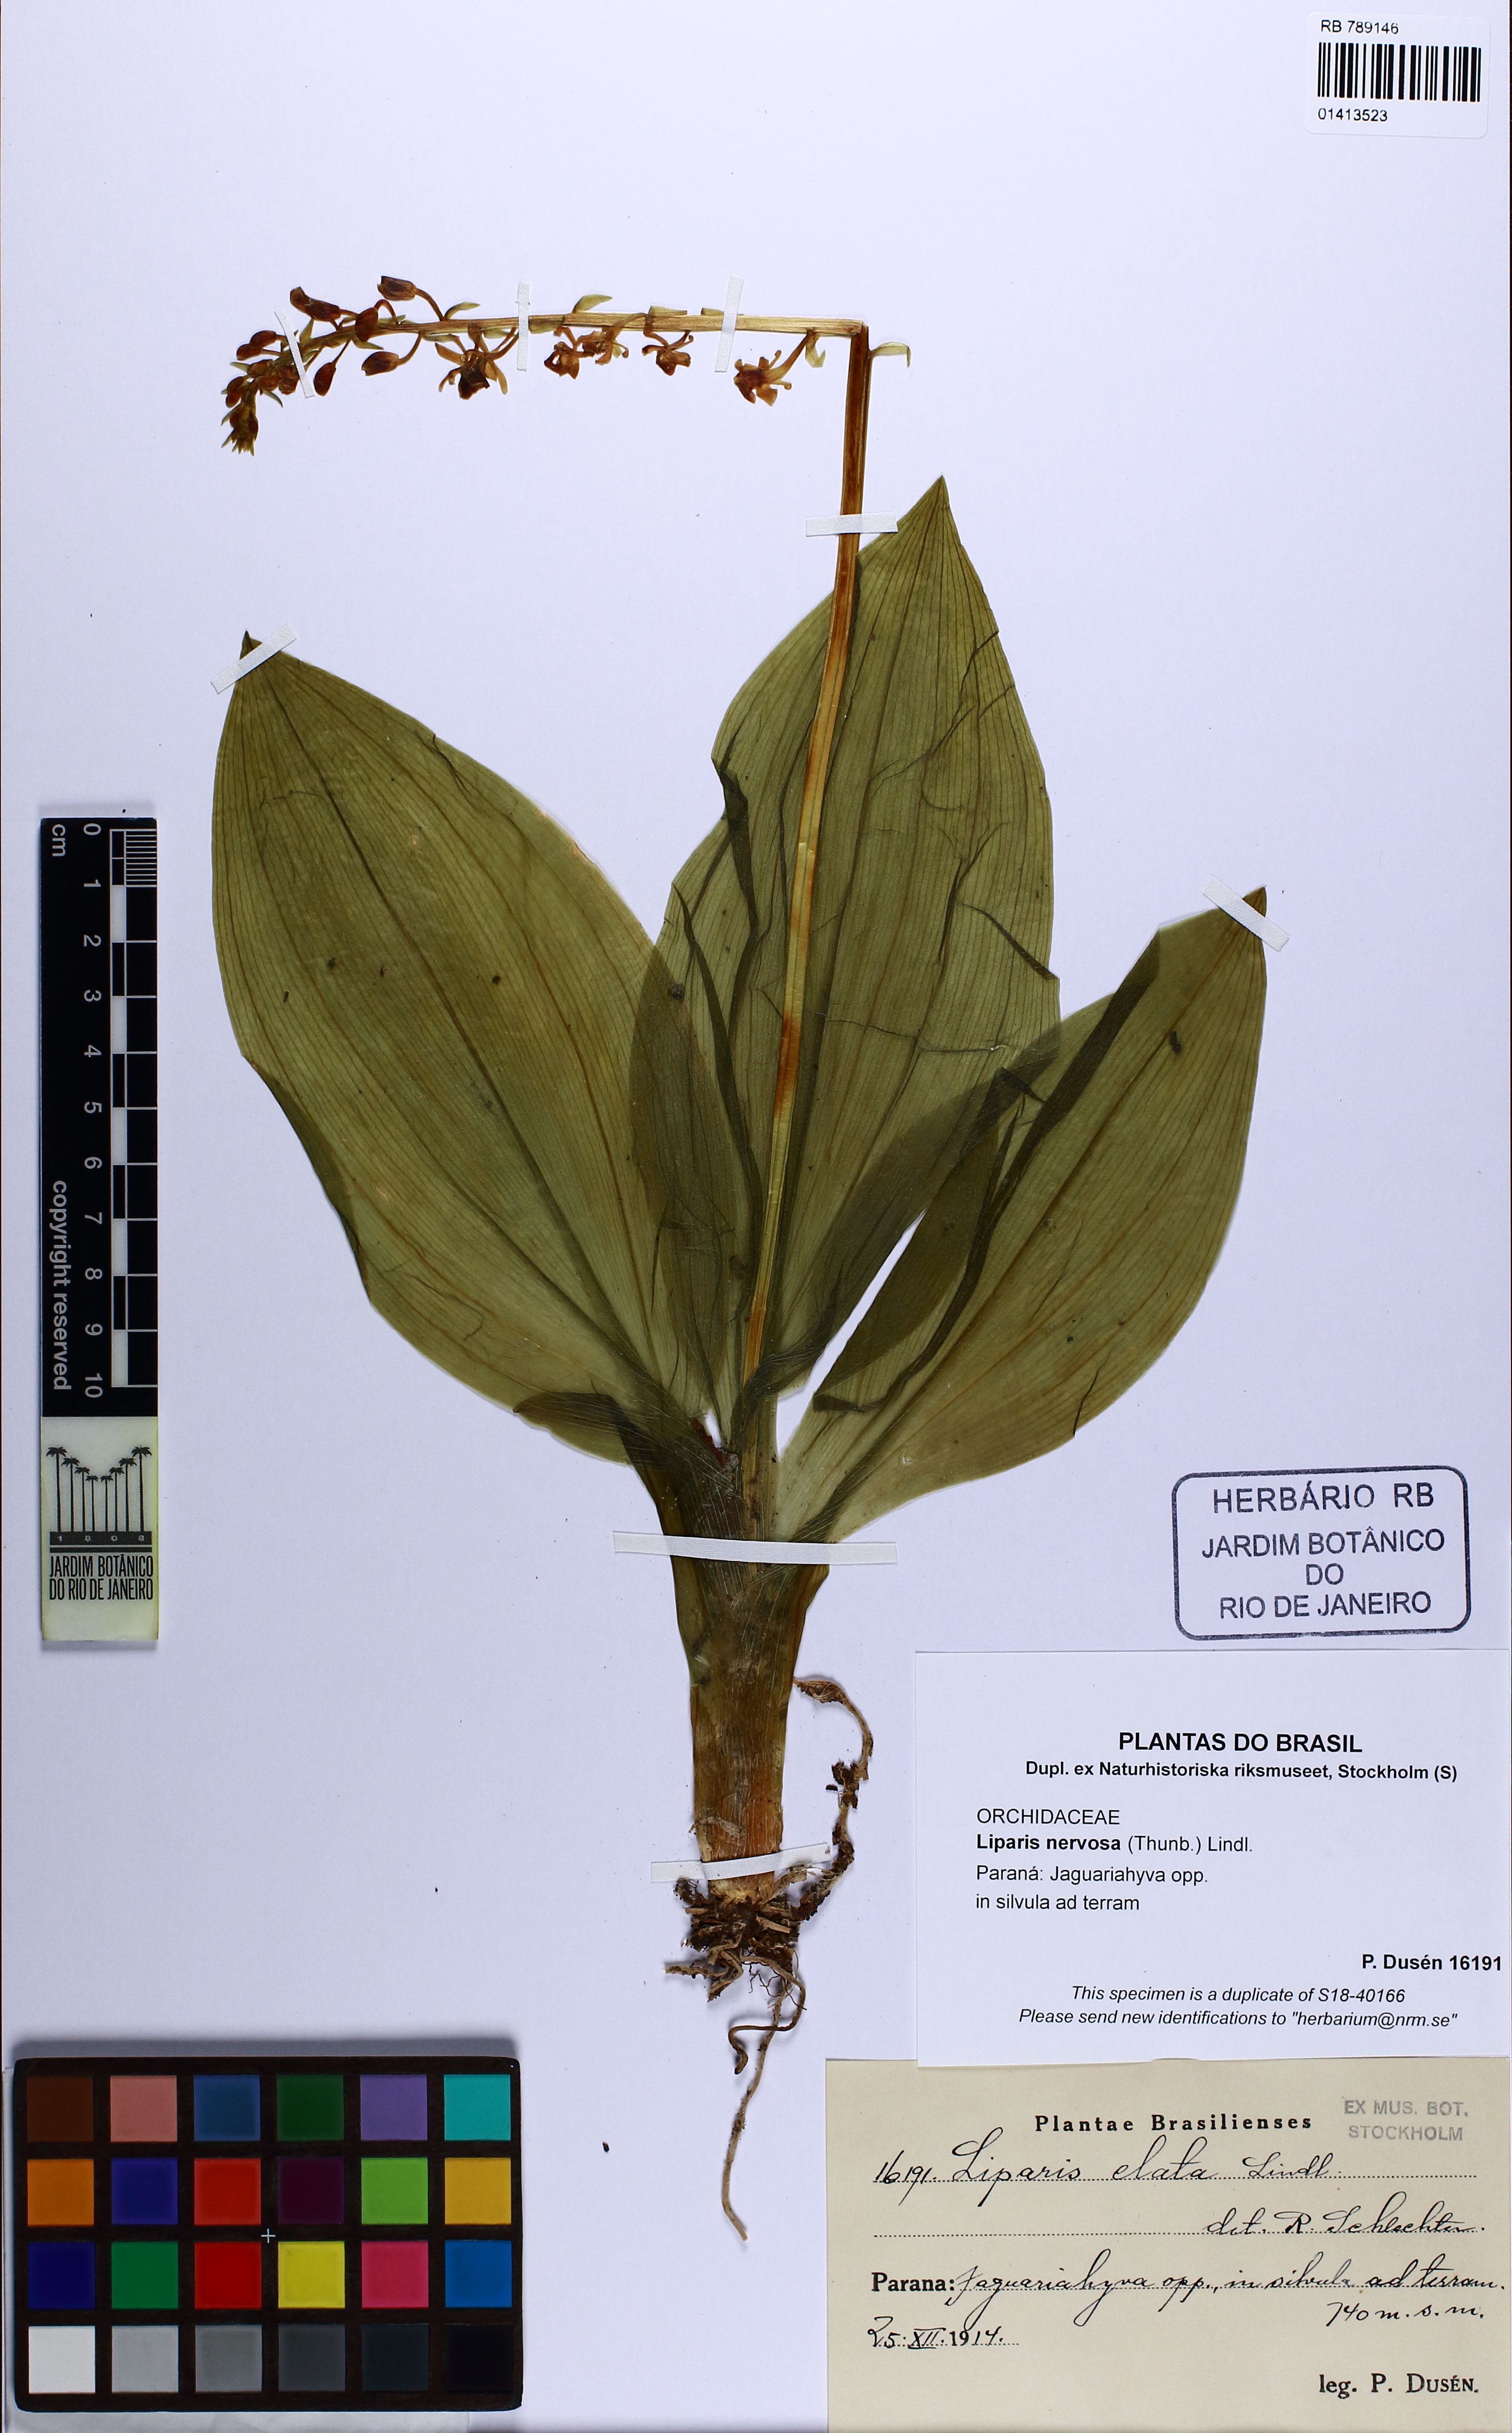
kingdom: Plantae
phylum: Tracheophyta
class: Liliopsida
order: Asparagales
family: Orchidaceae
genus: Liparis
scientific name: Liparis nervosa
